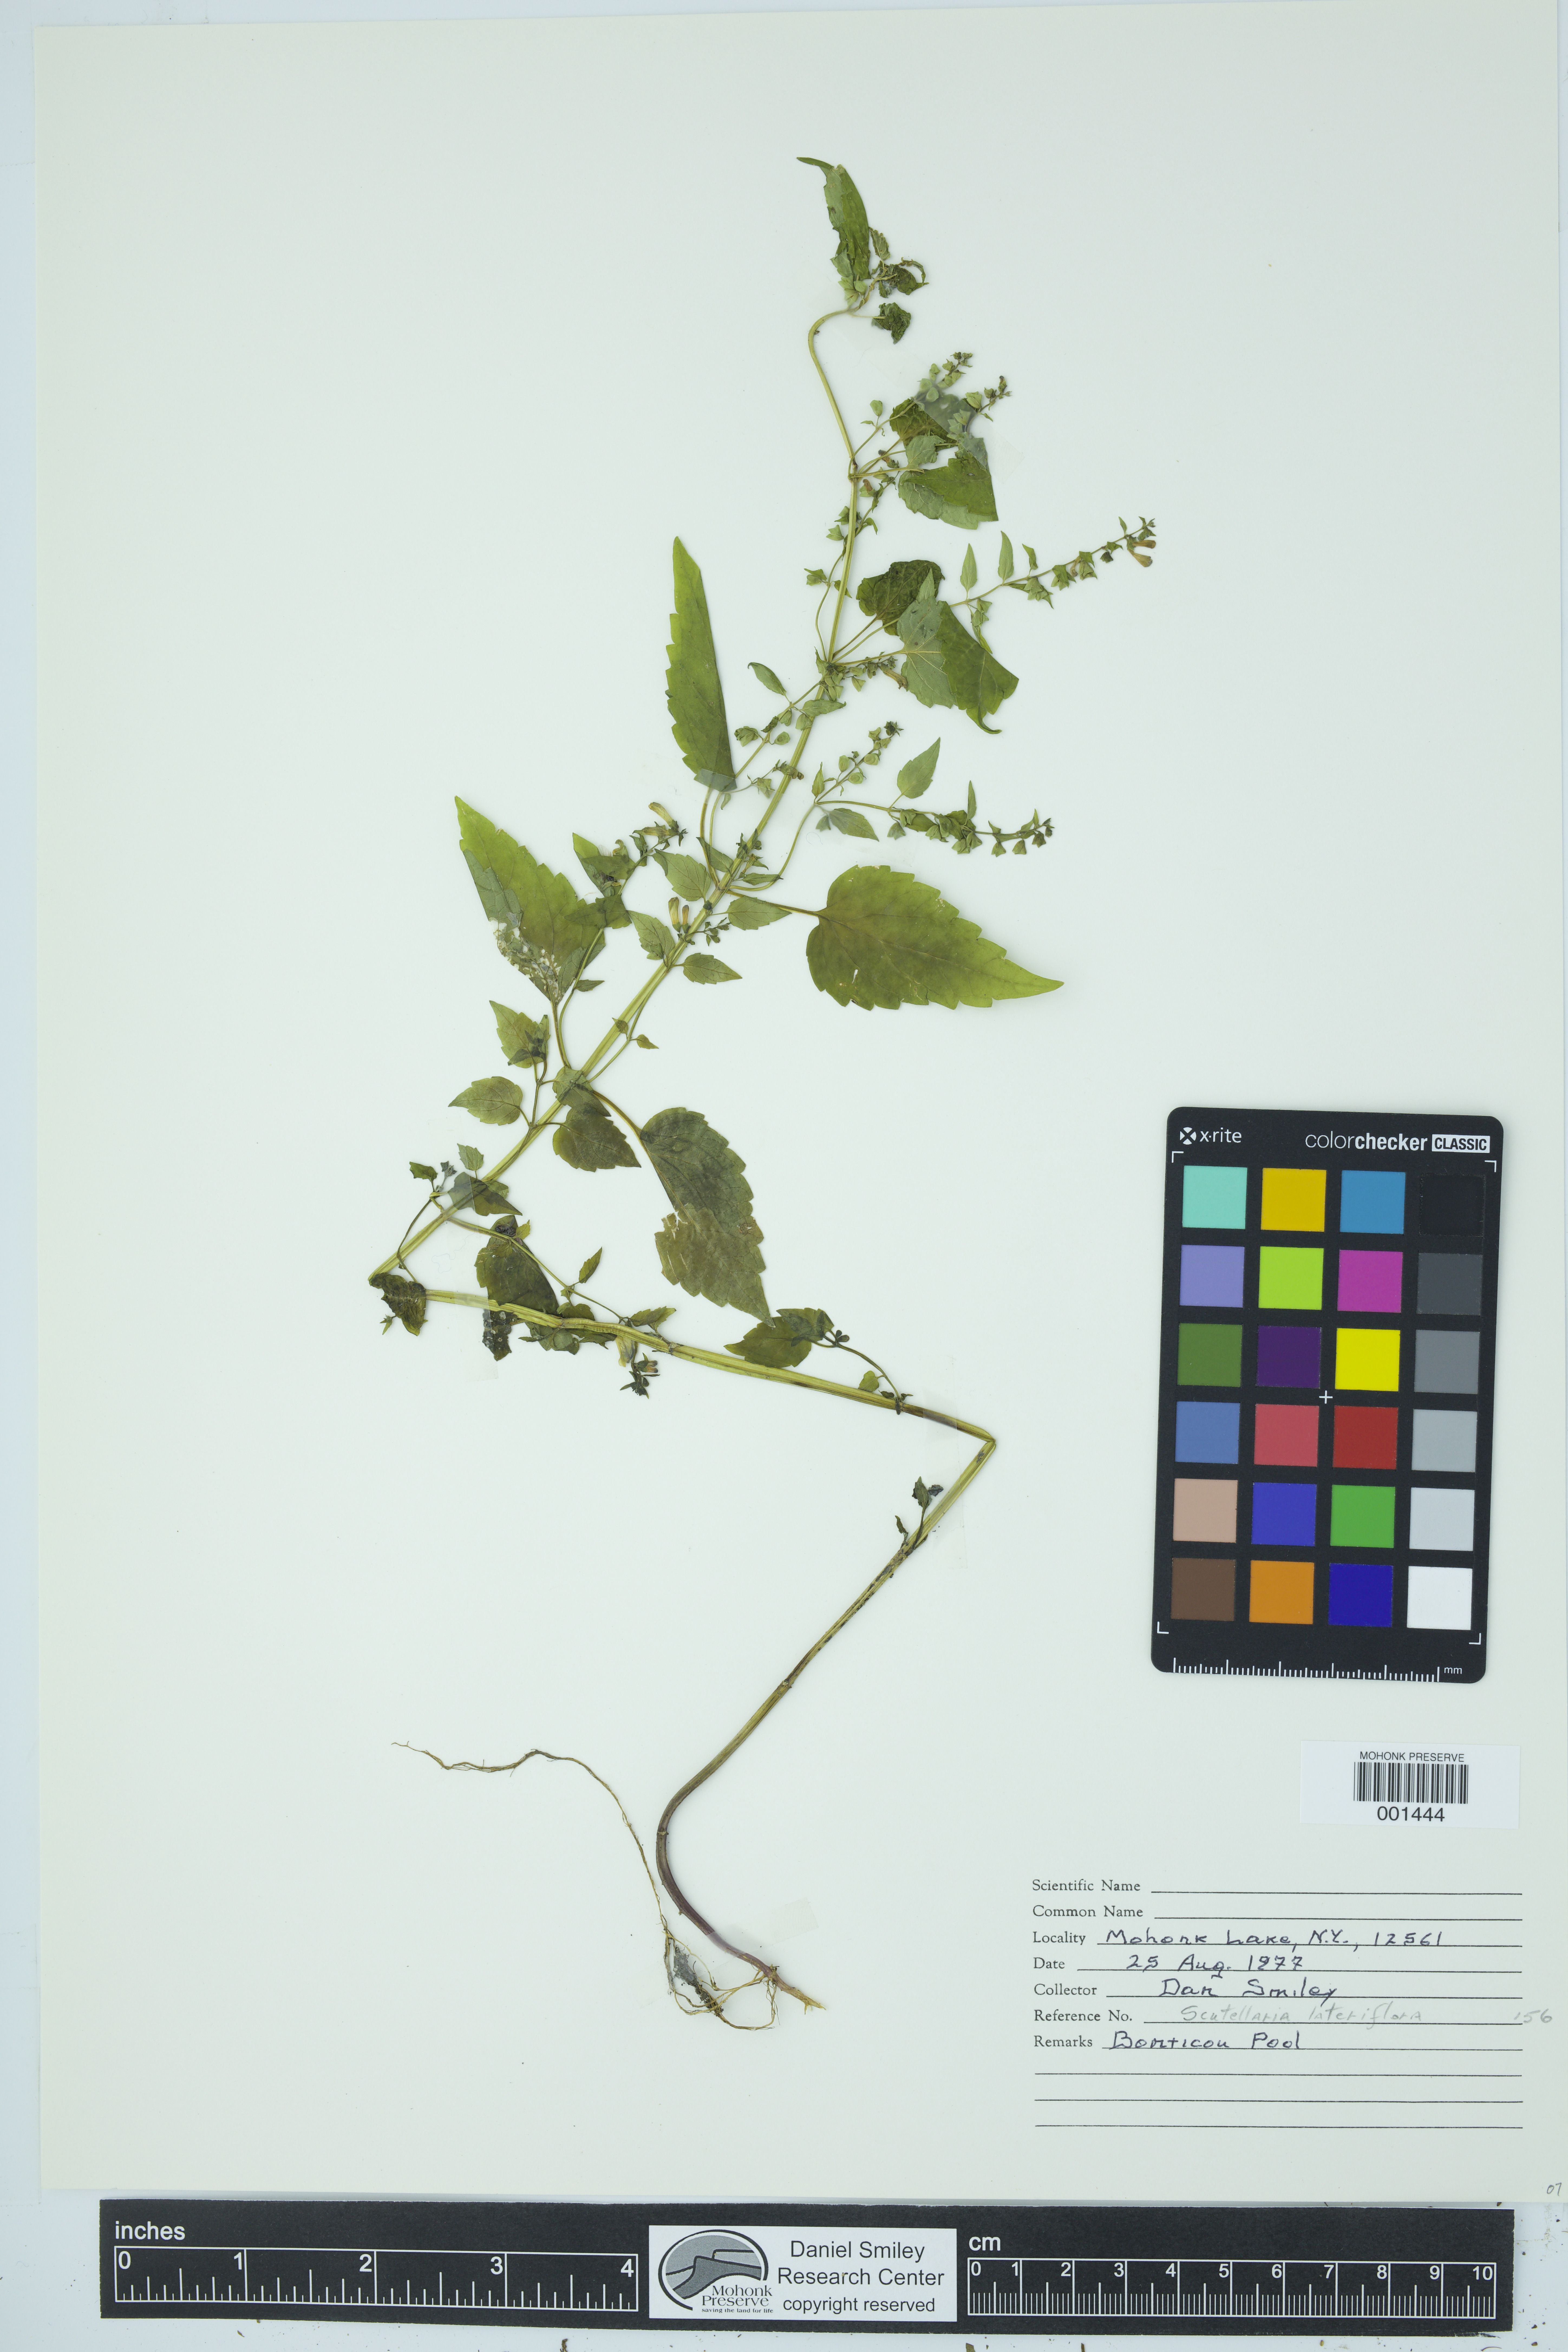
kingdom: Plantae
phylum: Tracheophyta
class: Magnoliopsida
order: Lamiales
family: Lamiaceae
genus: Scutellaria
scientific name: Scutellaria lateriflora
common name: Blue skullcap
